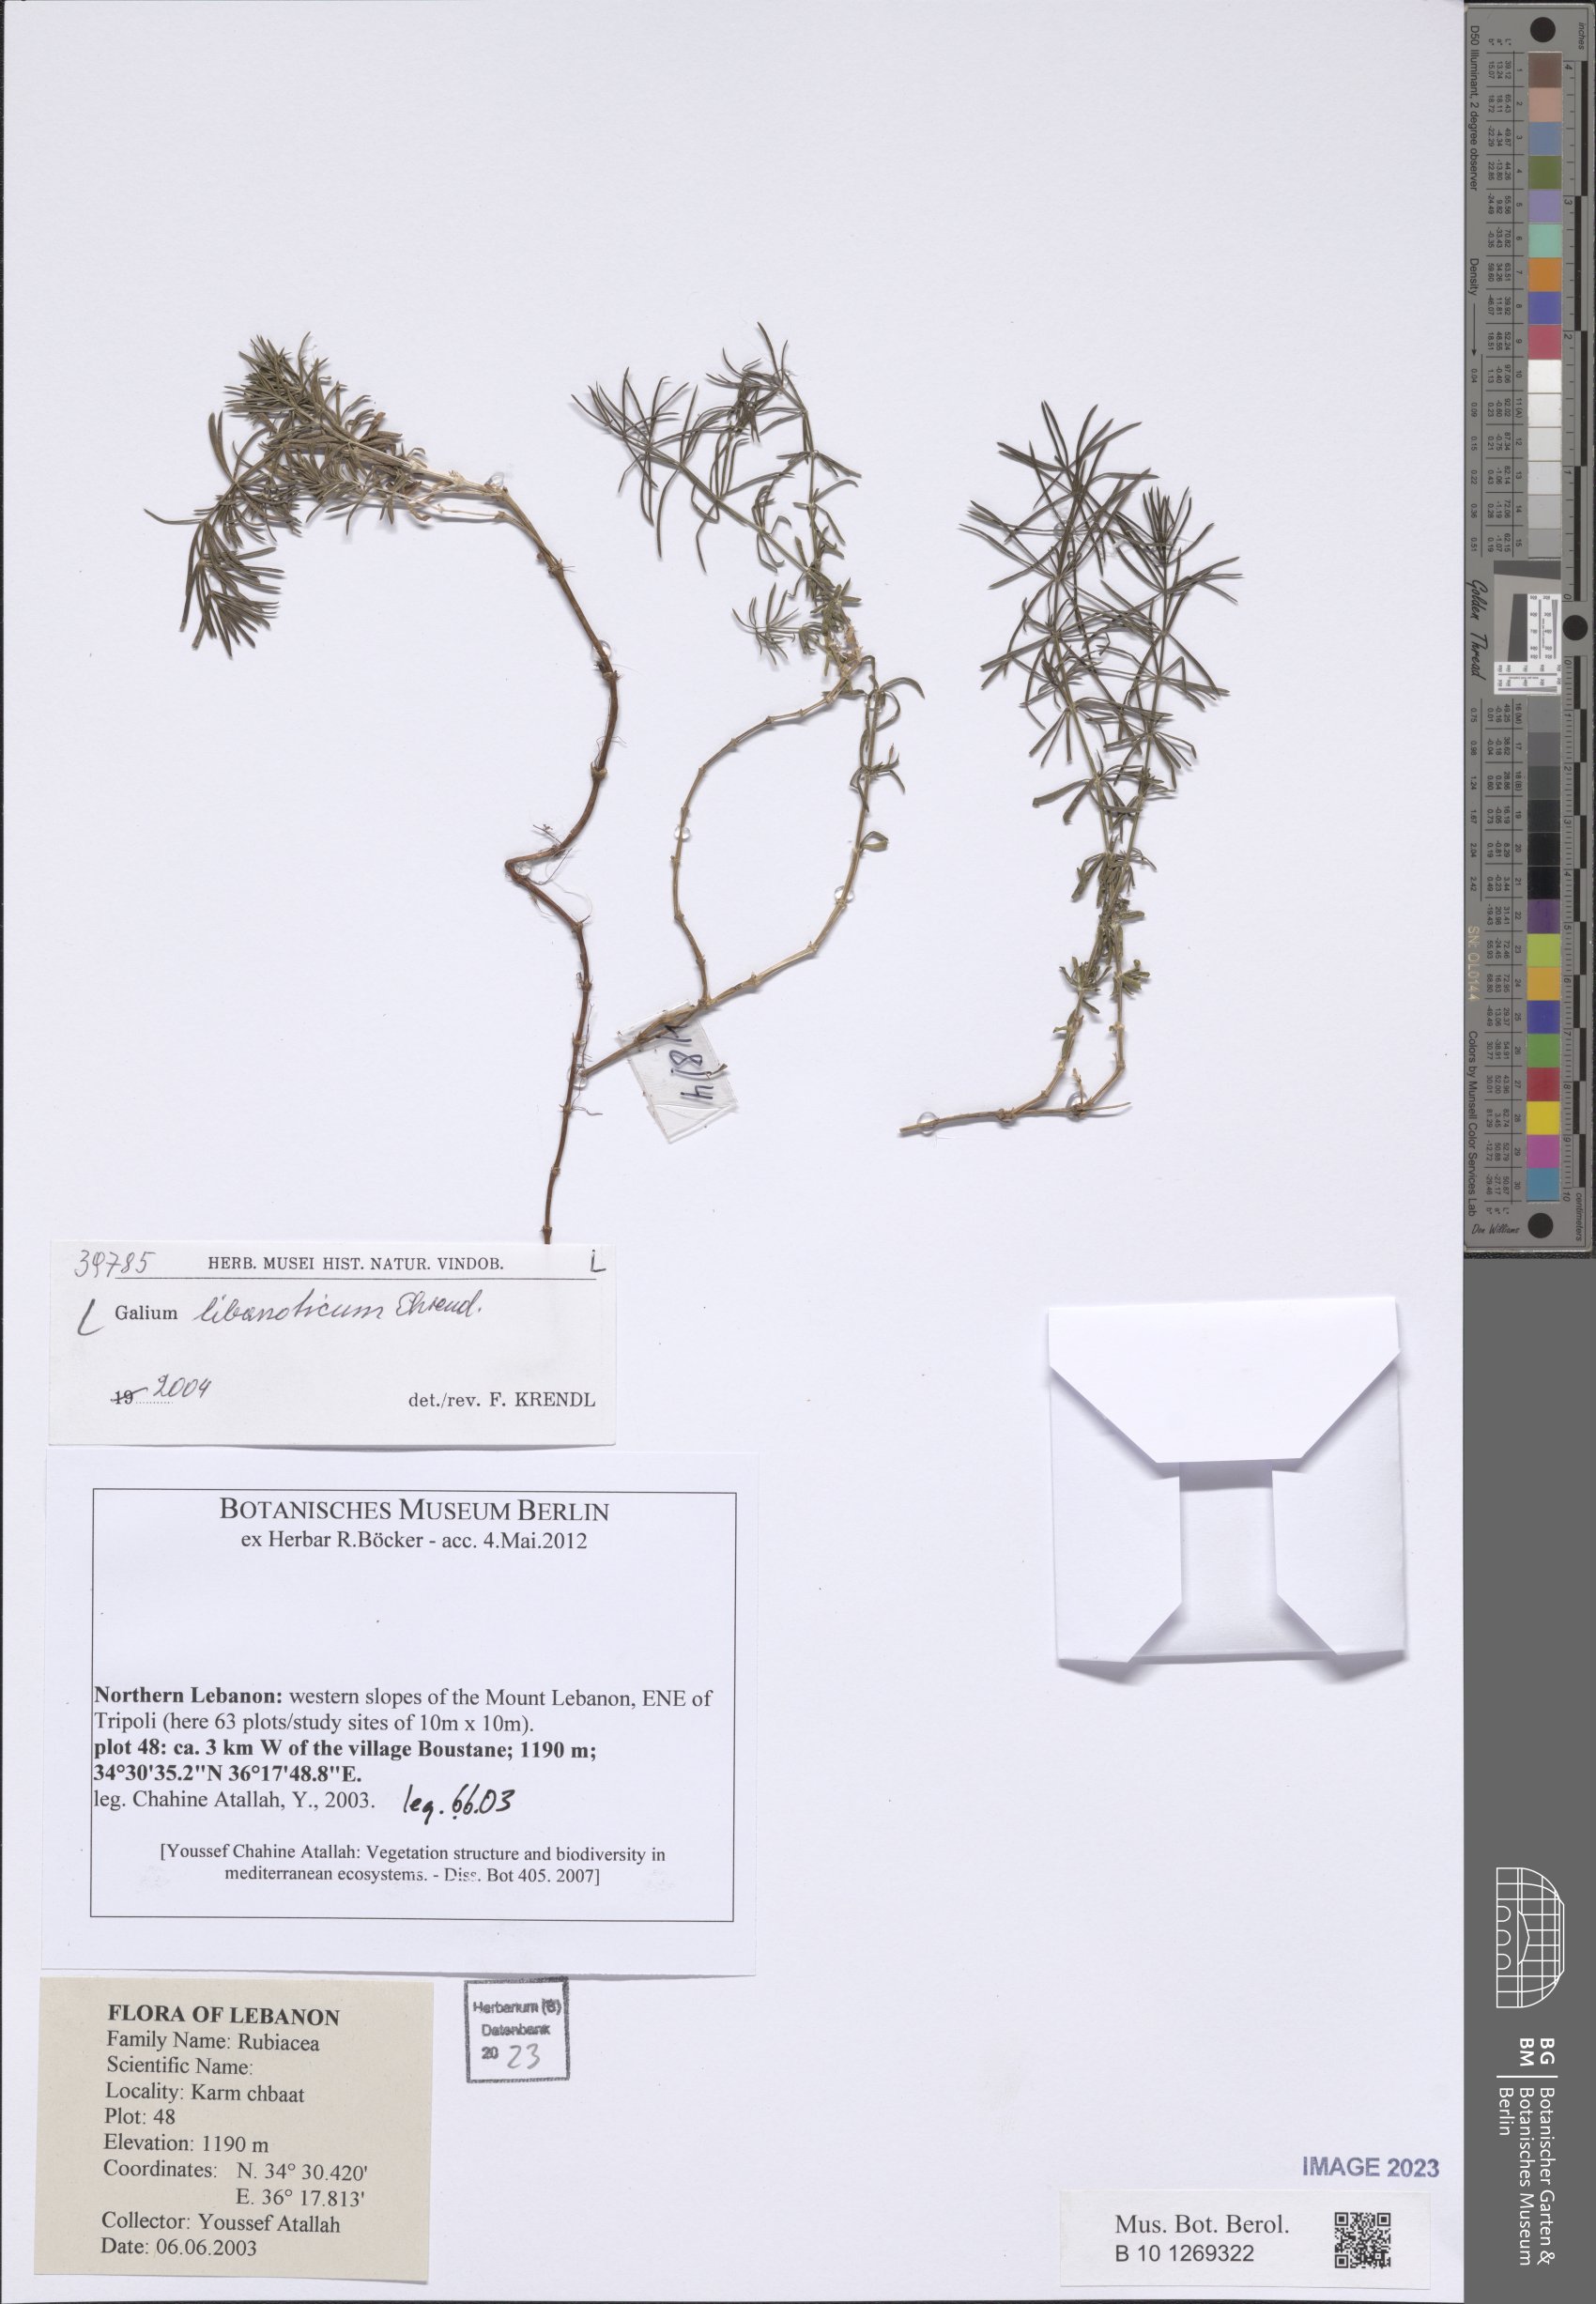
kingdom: Plantae
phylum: Tracheophyta
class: Magnoliopsida
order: Gentianales
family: Rubiaceae
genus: Galium
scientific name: Galium libanoticum
